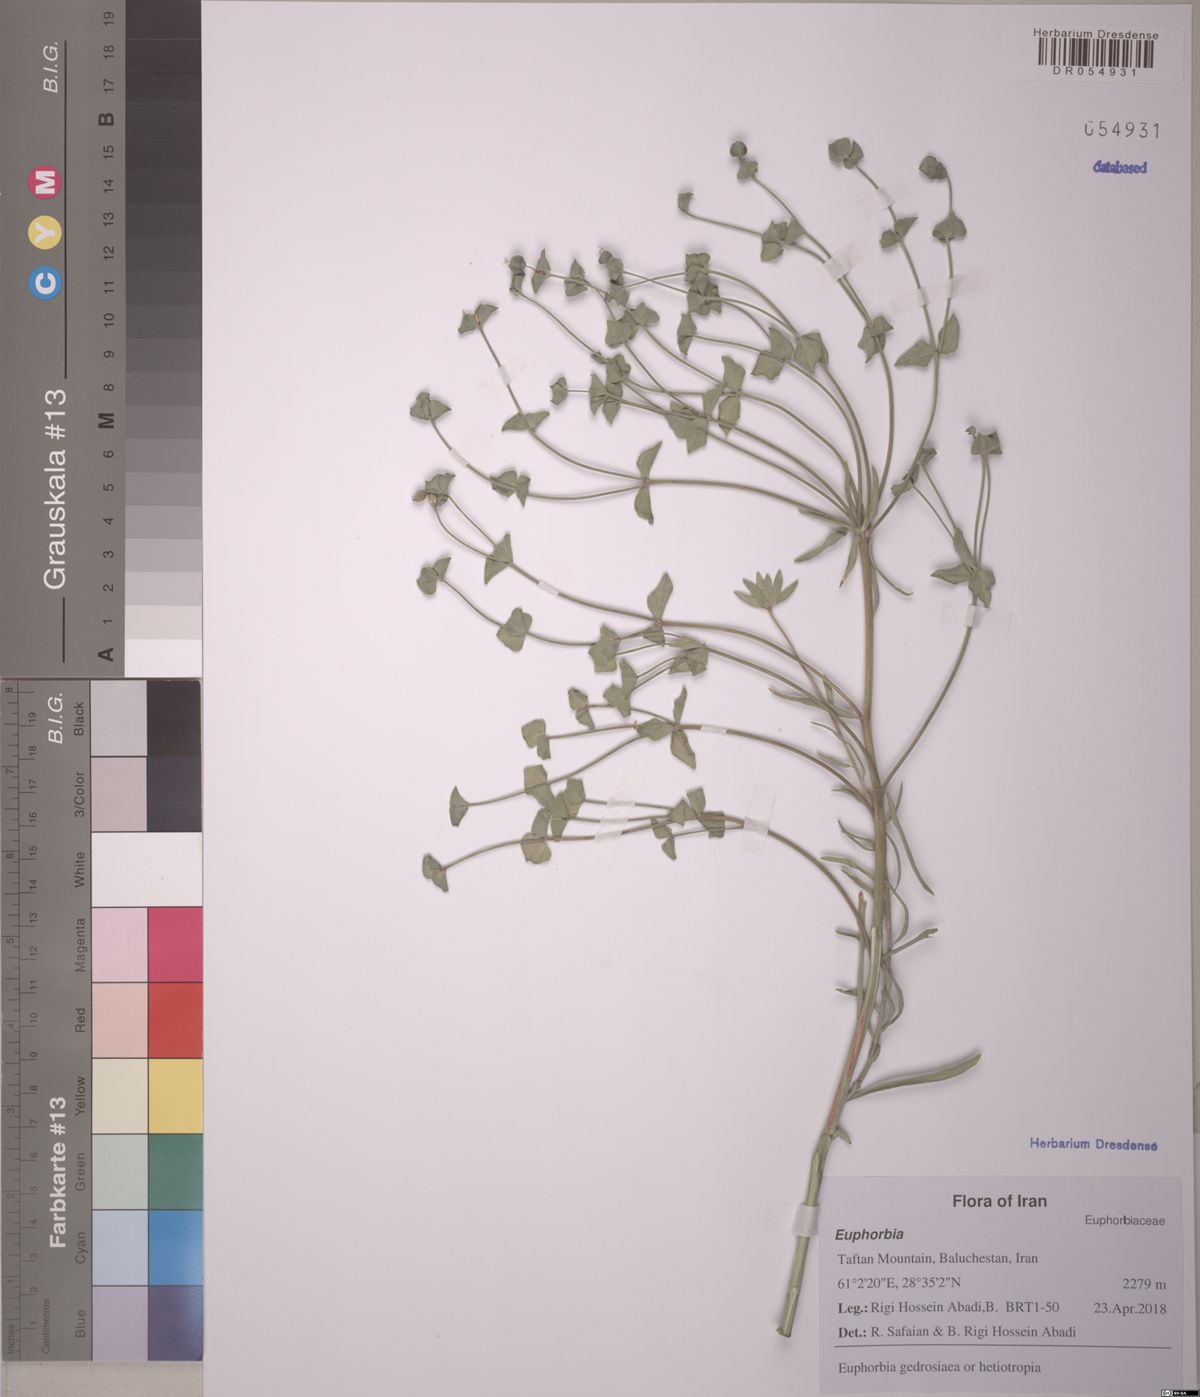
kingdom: Plantae
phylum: Tracheophyta
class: Magnoliopsida
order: Malpighiales
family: Euphorbiaceae
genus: Euphorbia
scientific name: Euphorbia gedrosiaca
